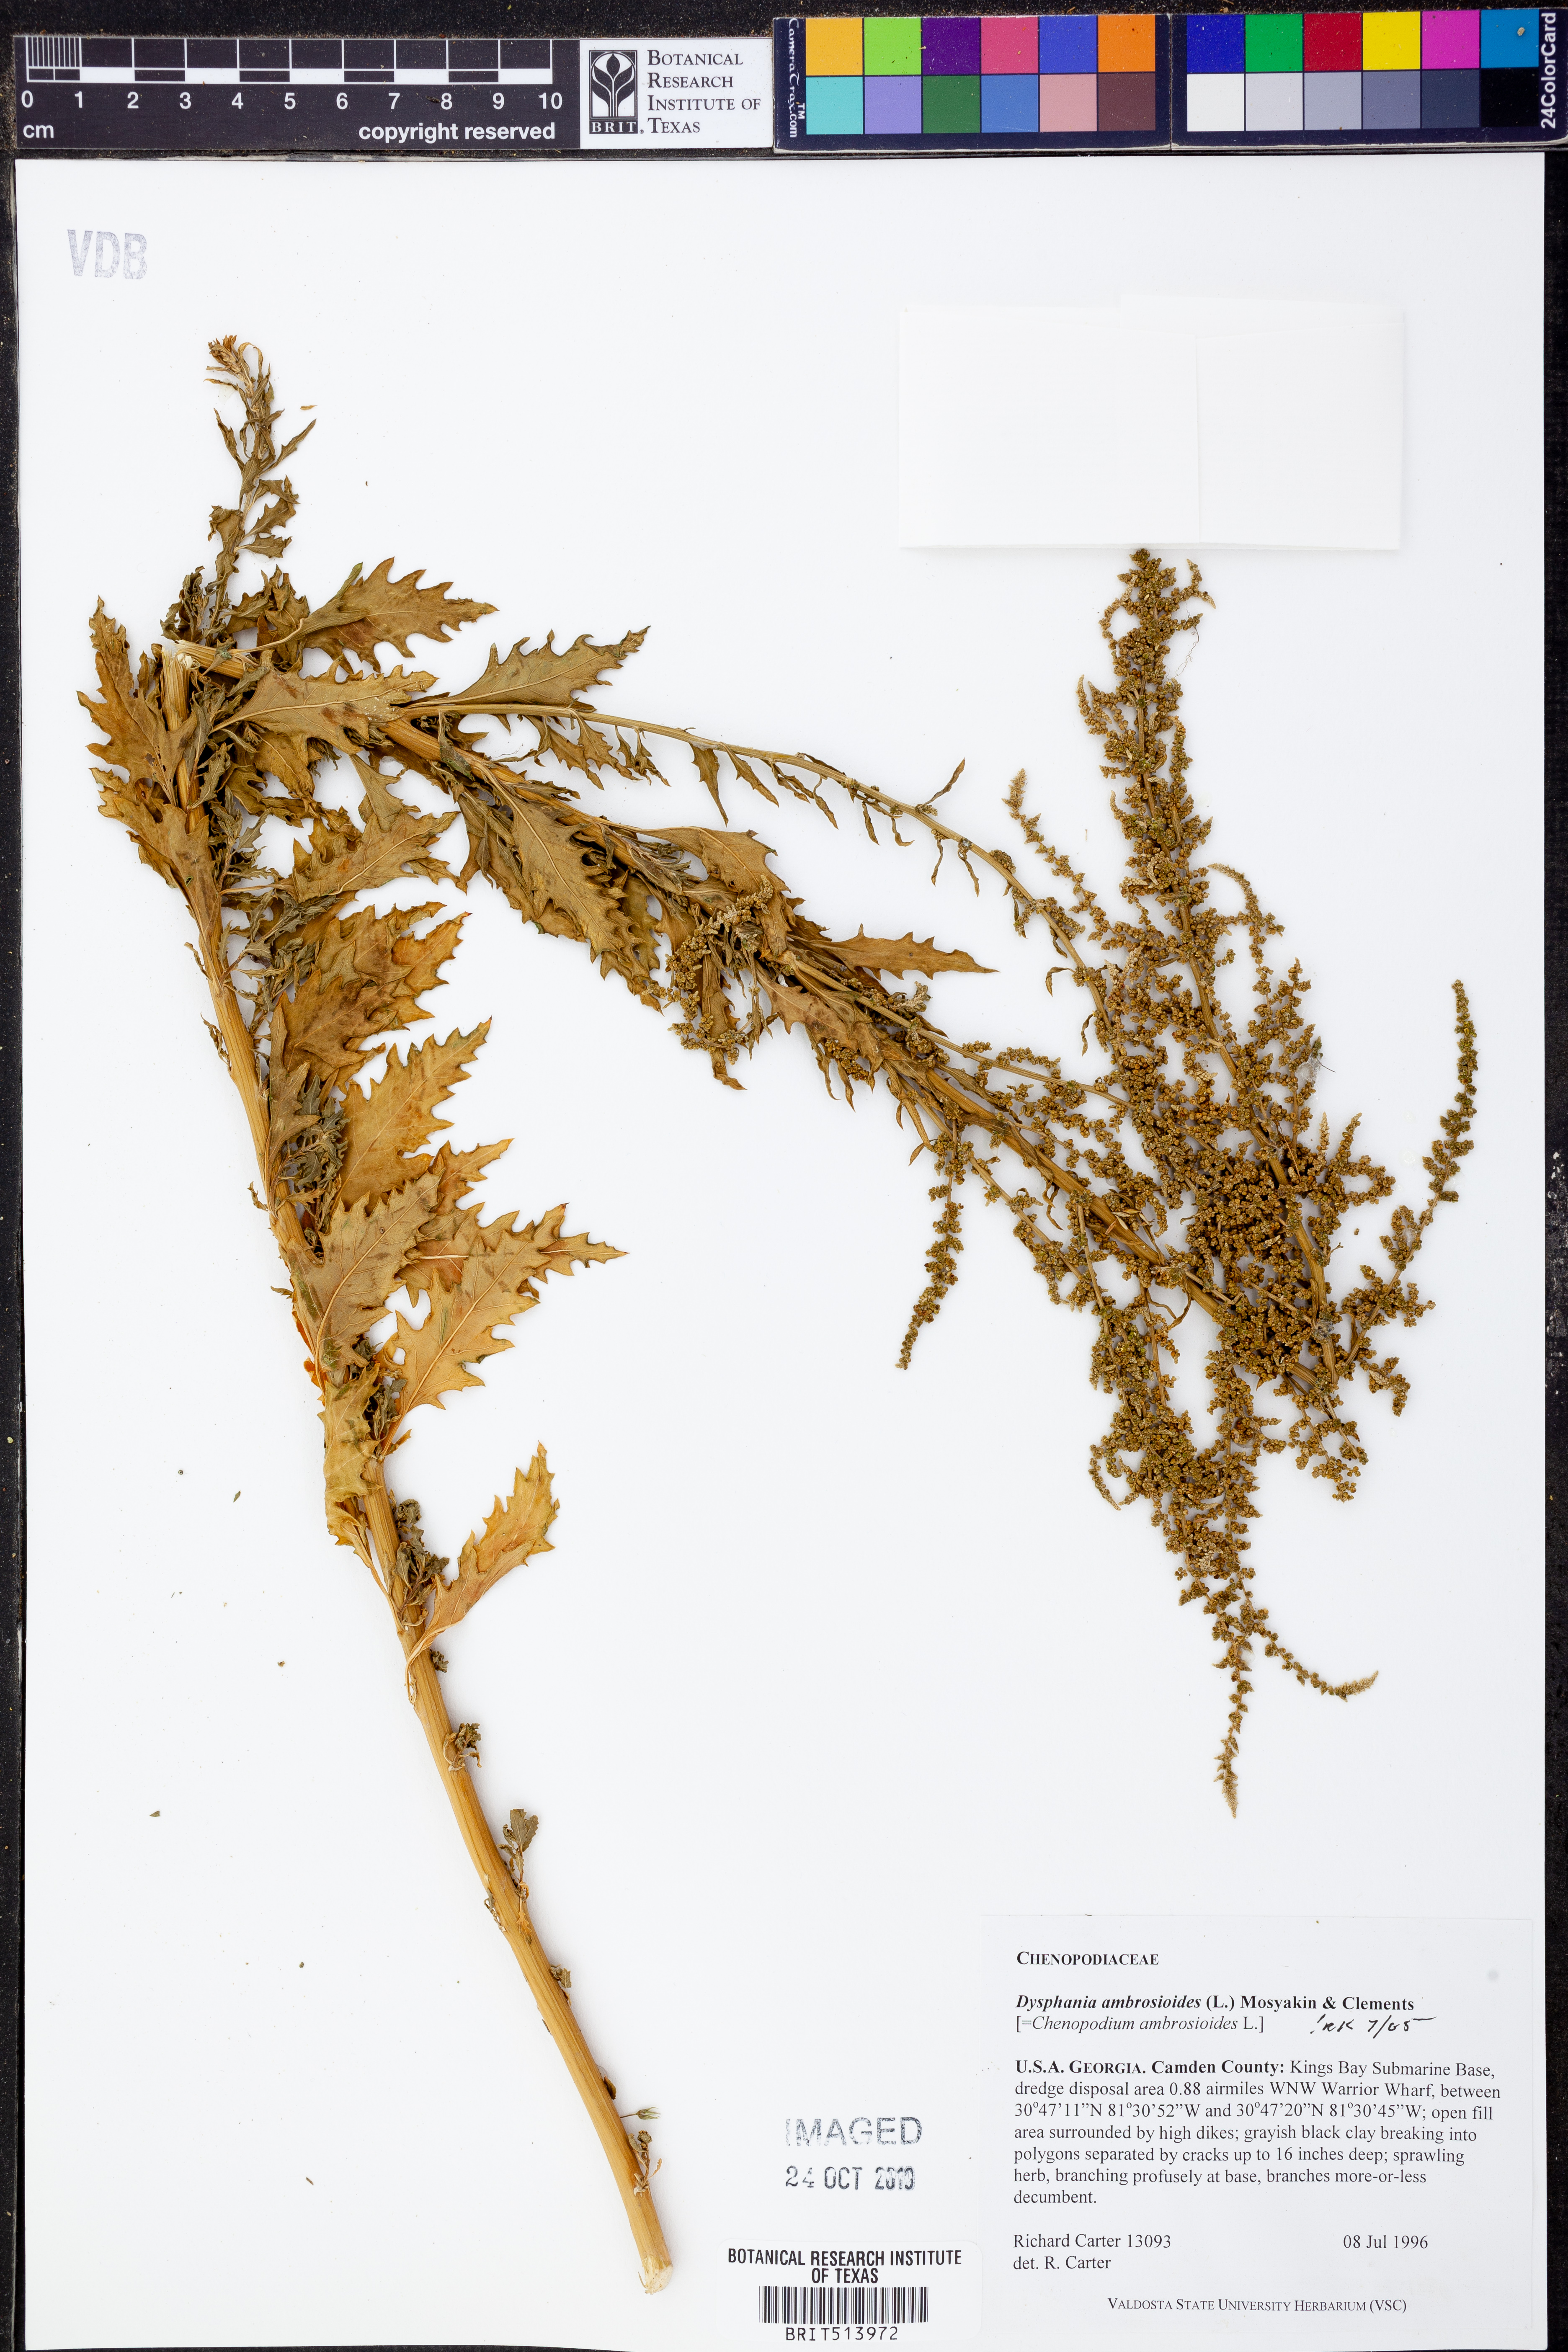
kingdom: Plantae
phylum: Tracheophyta
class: Magnoliopsida
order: Caryophyllales
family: Amaranthaceae
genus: Dysphania
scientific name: Dysphania ambrosioides
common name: Wormseed
